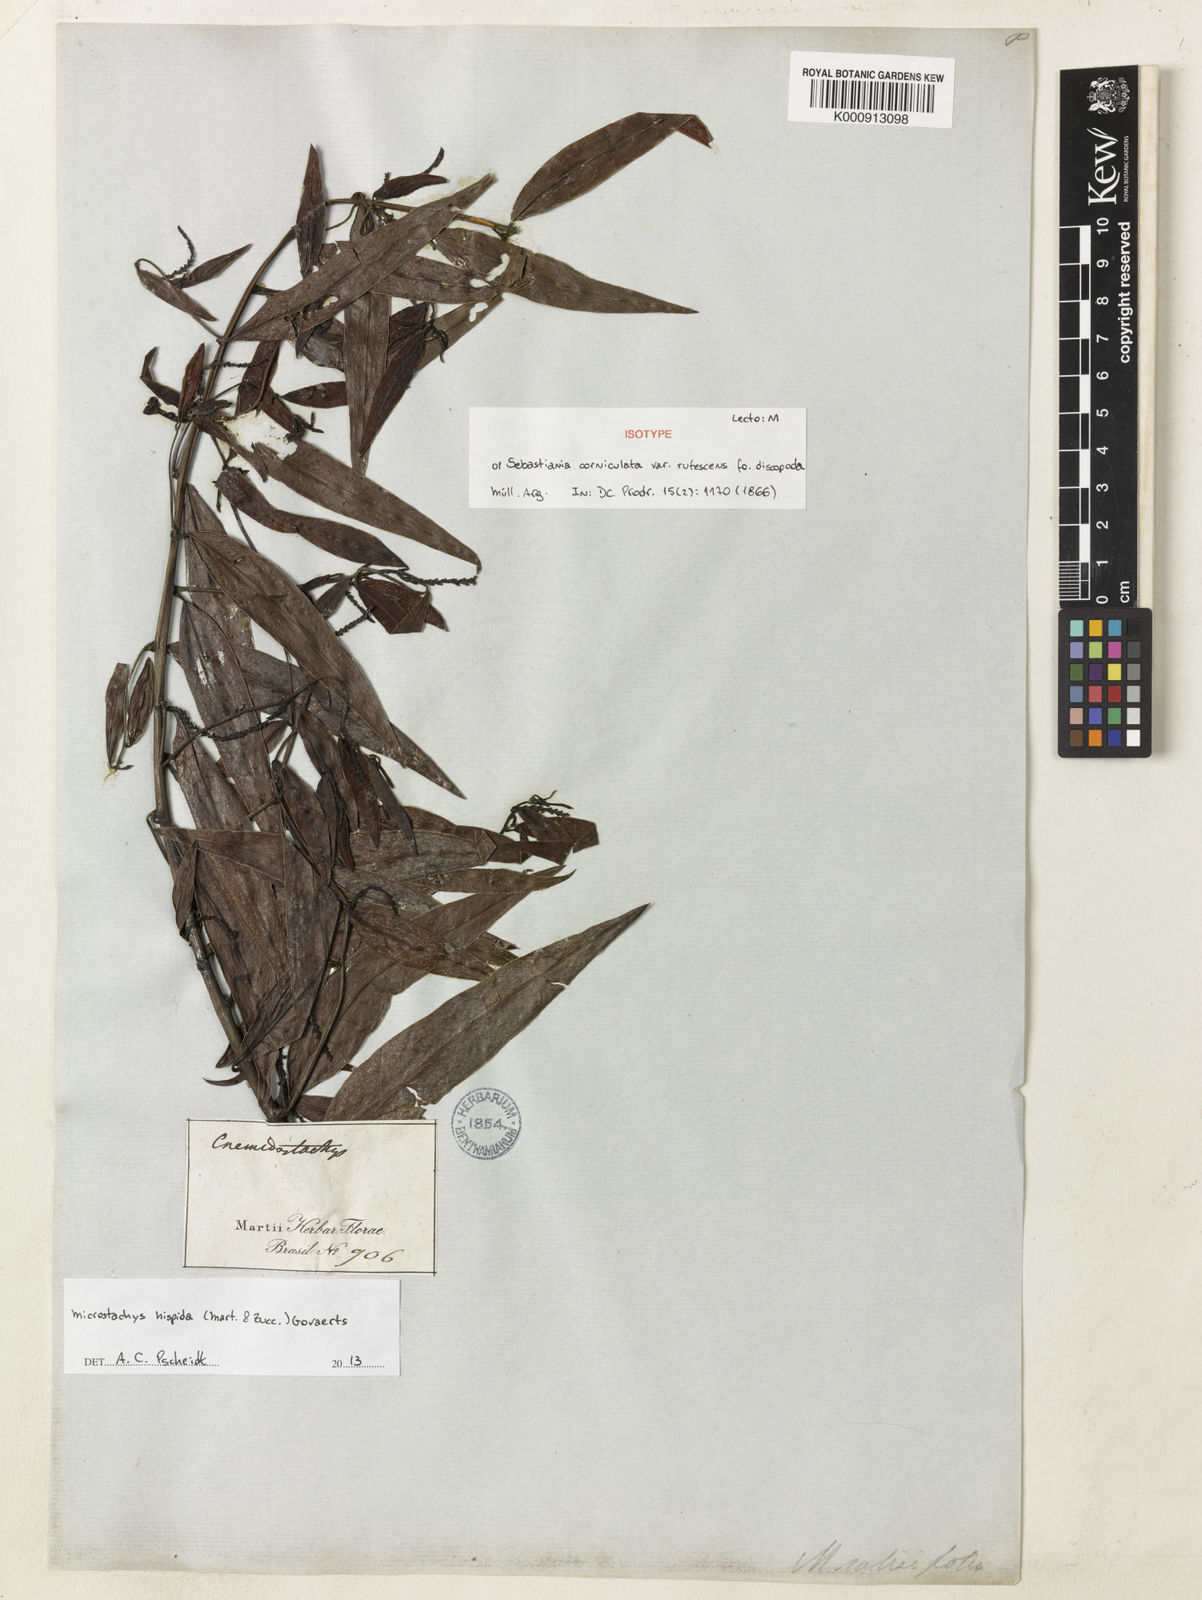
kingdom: Plantae
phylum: Tracheophyta
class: Magnoliopsida
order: Malpighiales
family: Euphorbiaceae
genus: Microstachys
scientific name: Microstachys hispida
